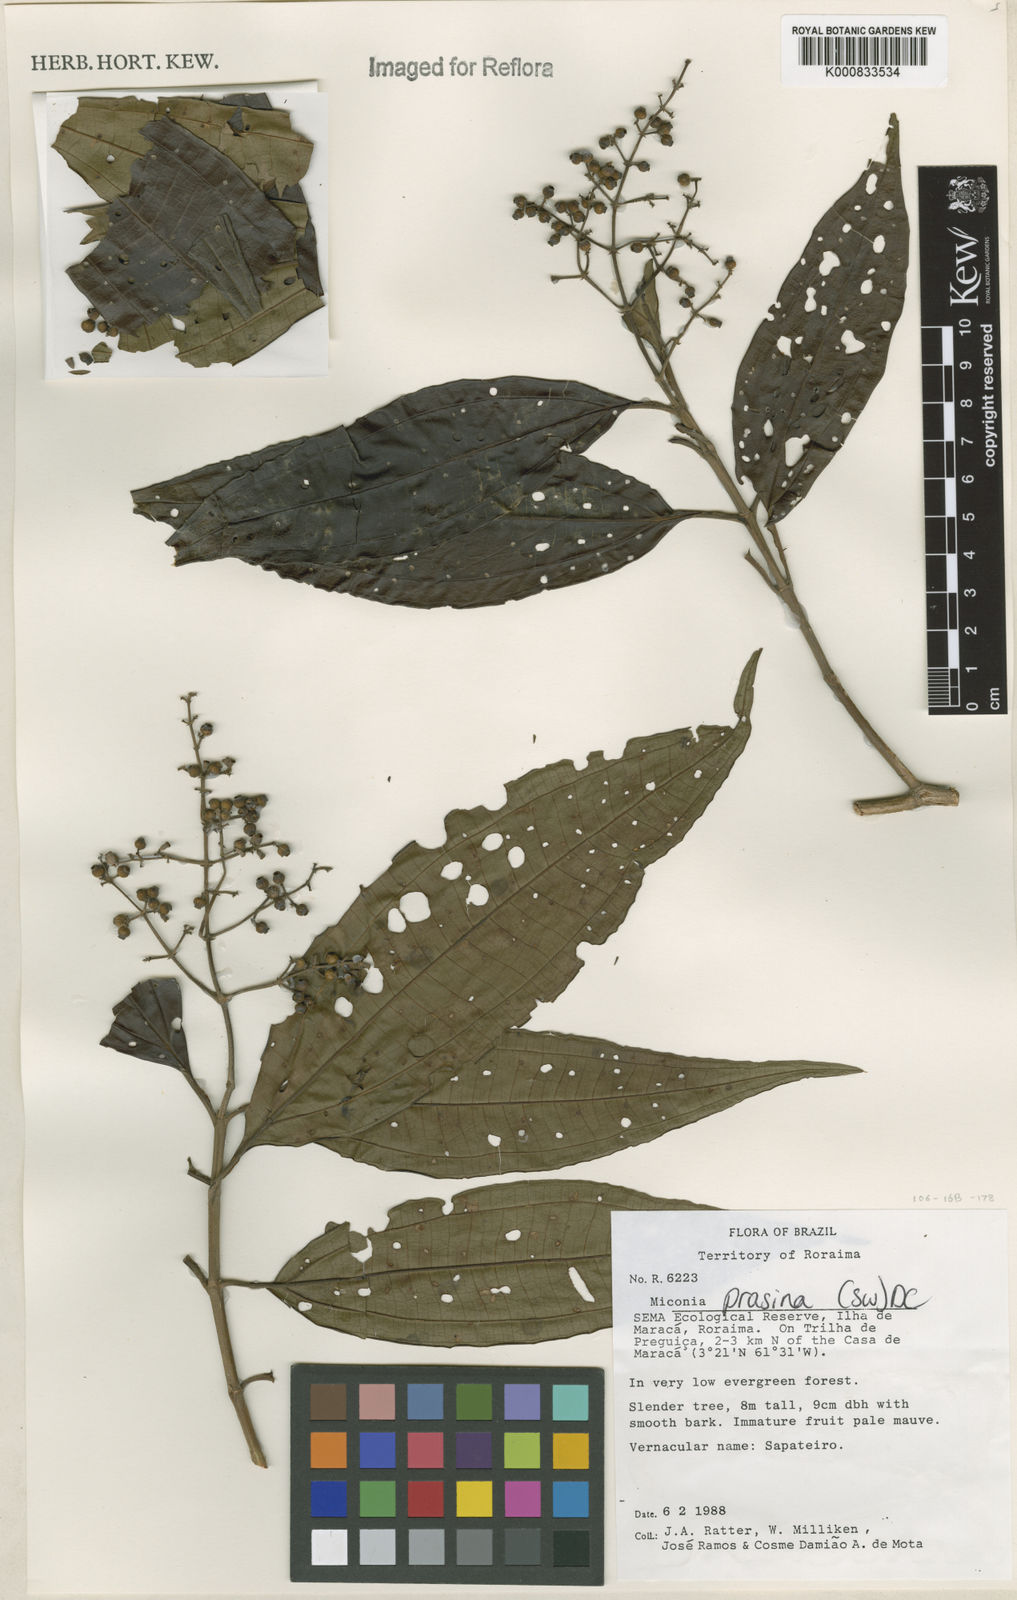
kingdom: Plantae
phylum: Tracheophyta
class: Magnoliopsida
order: Myrtales
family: Melastomataceae
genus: Miconia
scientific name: Miconia prasina
